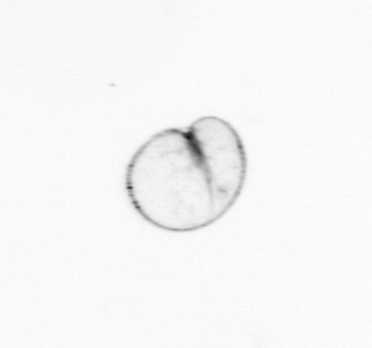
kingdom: Chromista
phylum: Myzozoa
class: Dinophyceae
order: Noctilucales
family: Noctilucaceae
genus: Noctiluca
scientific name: Noctiluca scintillans
